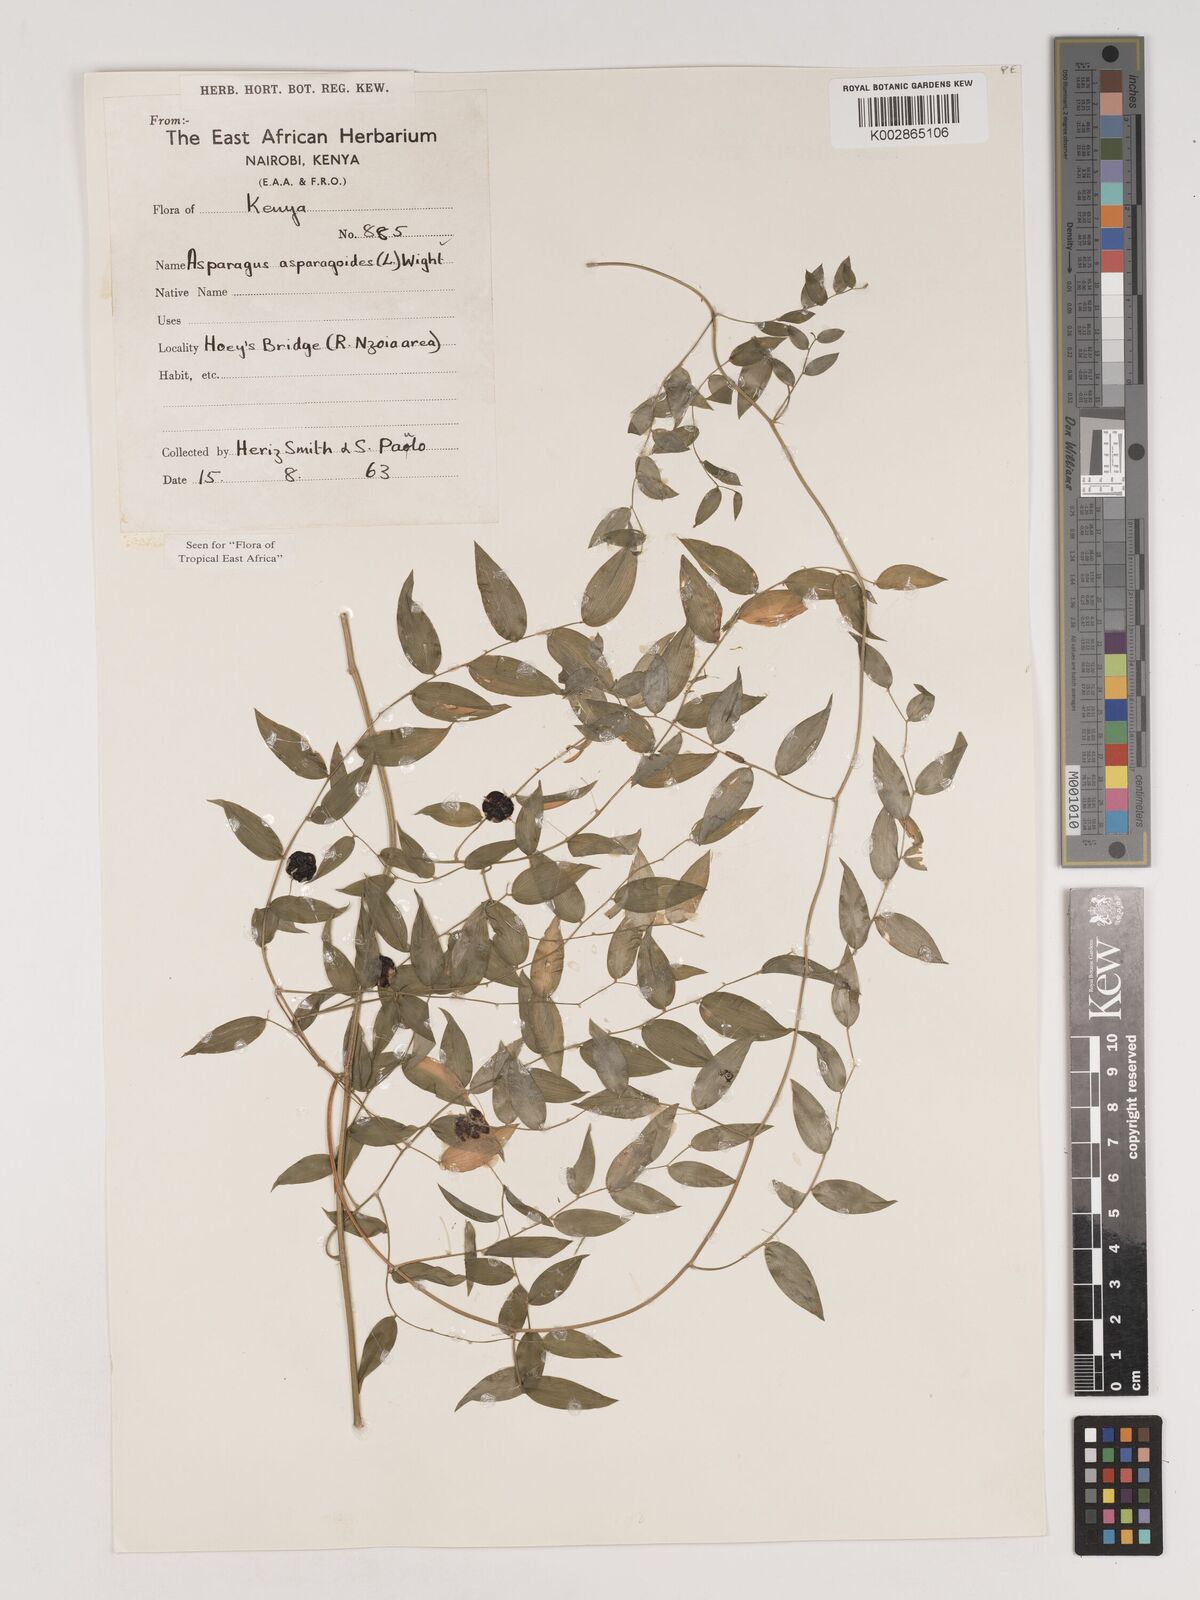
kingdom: Plantae
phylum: Tracheophyta
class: Liliopsida
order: Asparagales
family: Asparagaceae
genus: Asparagus
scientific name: Asparagus asparagoides
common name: African asparagus fern
